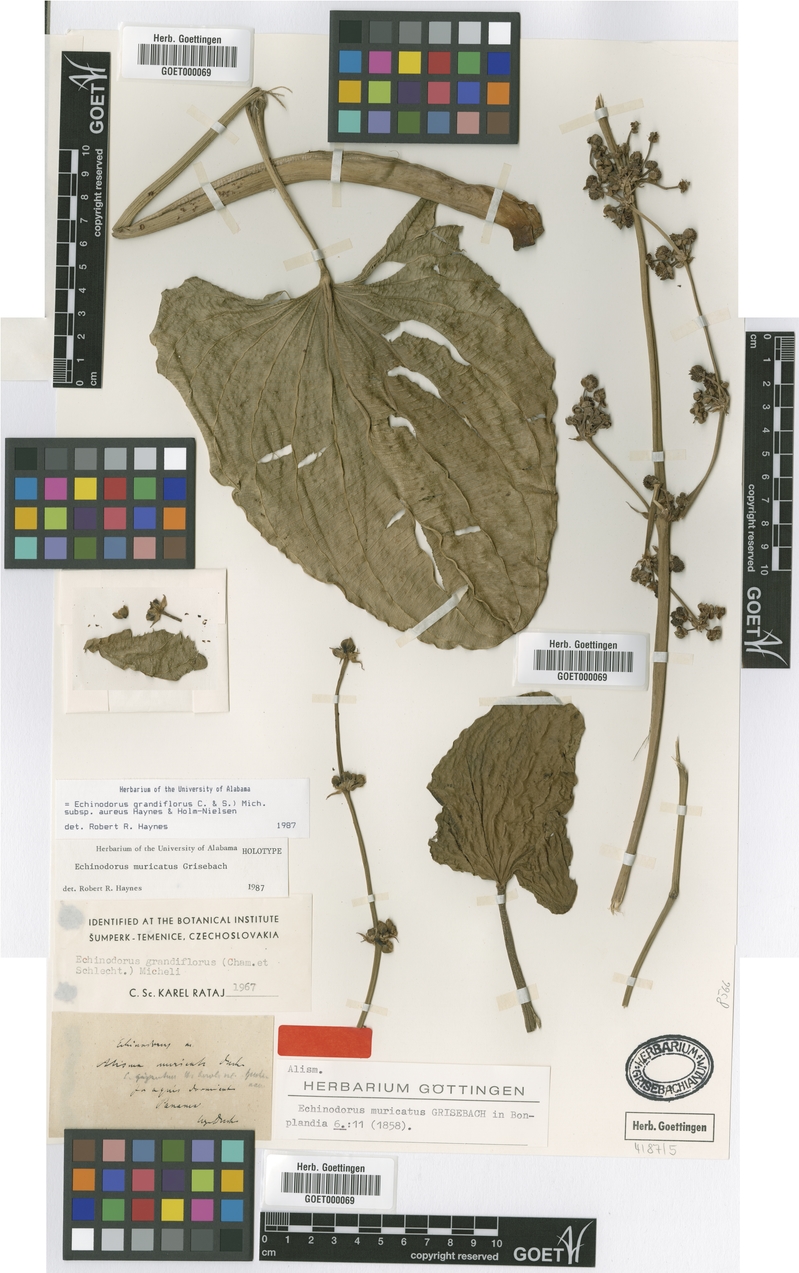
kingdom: Plantae
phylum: Tracheophyta
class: Liliopsida
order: Alismatales
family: Alismataceae
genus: Aquarius
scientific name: Aquarius floribundus
